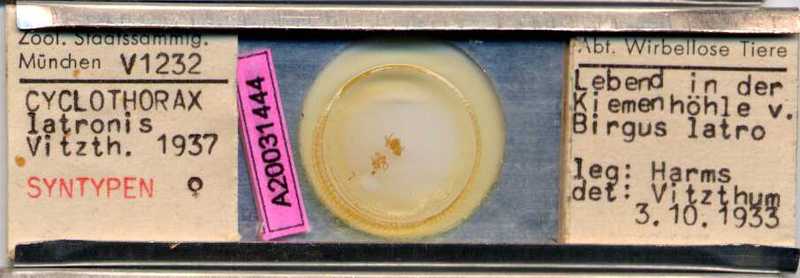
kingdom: Animalia
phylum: Arthropoda
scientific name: Arthropoda
